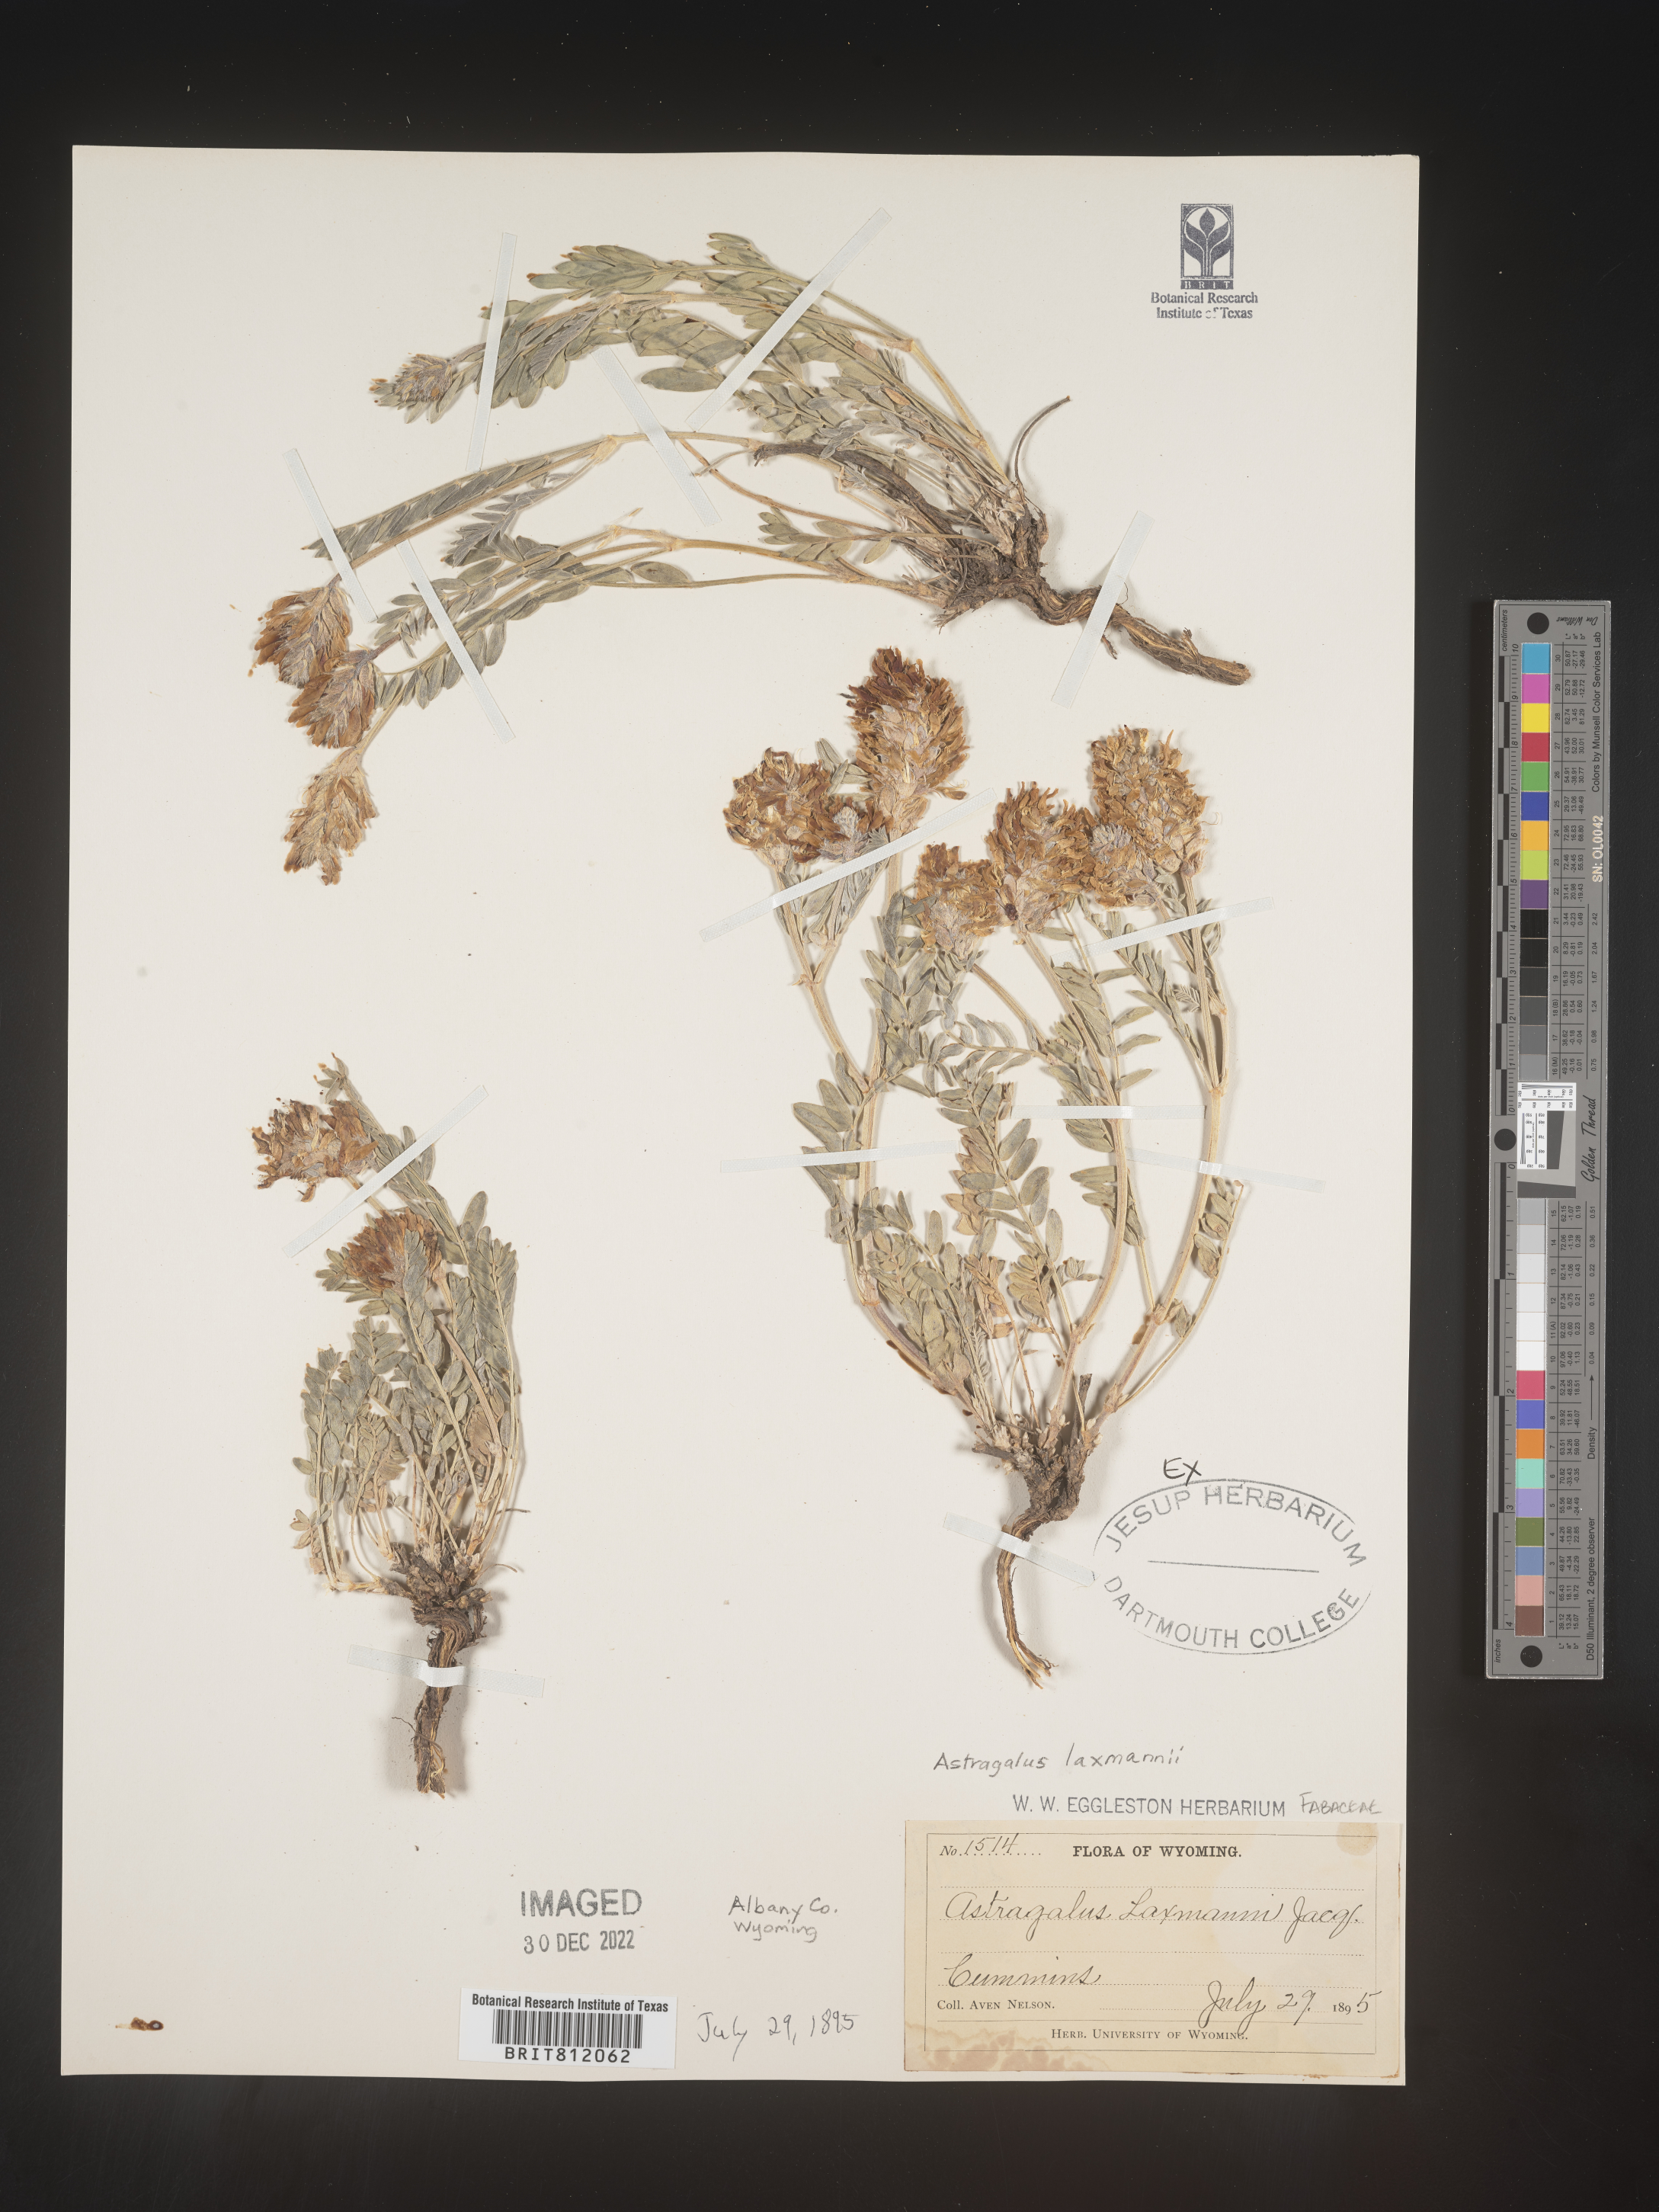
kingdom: Plantae
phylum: Tracheophyta
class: Magnoliopsida
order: Fabales
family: Fabaceae
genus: Astragalus
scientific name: Astragalus
